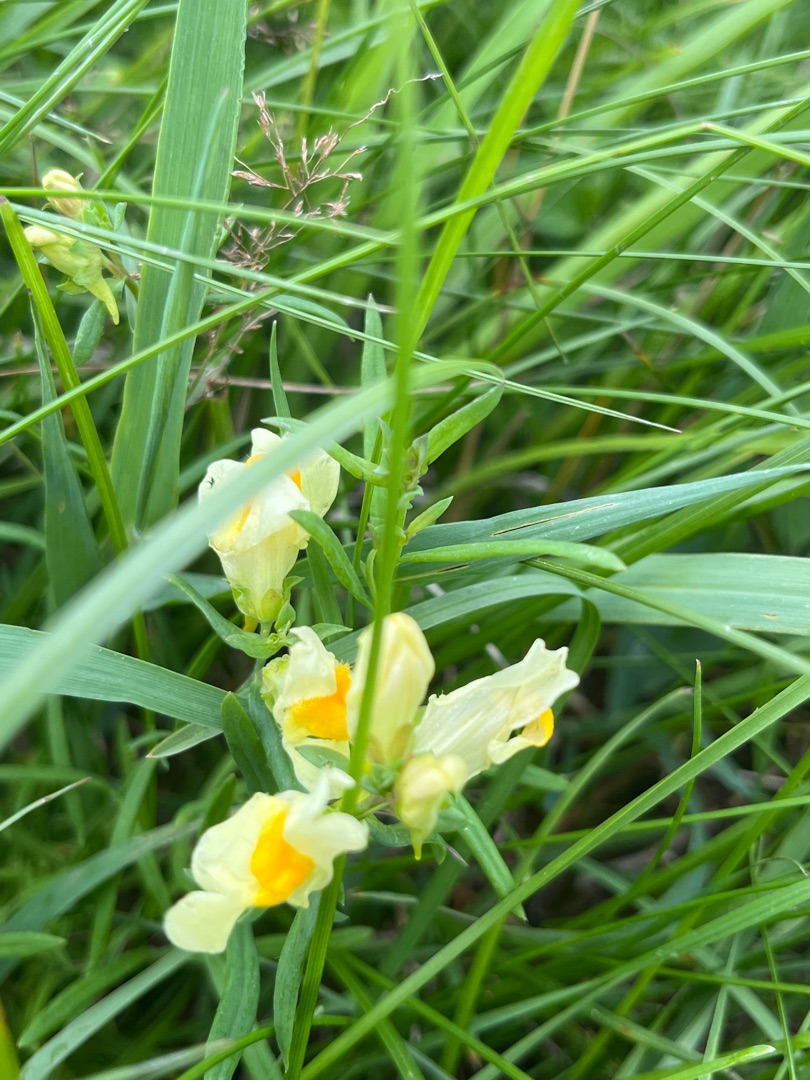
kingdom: Plantae
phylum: Tracheophyta
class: Magnoliopsida
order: Lamiales
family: Plantaginaceae
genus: Linaria
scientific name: Linaria vulgaris
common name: Almindelig torskemund
